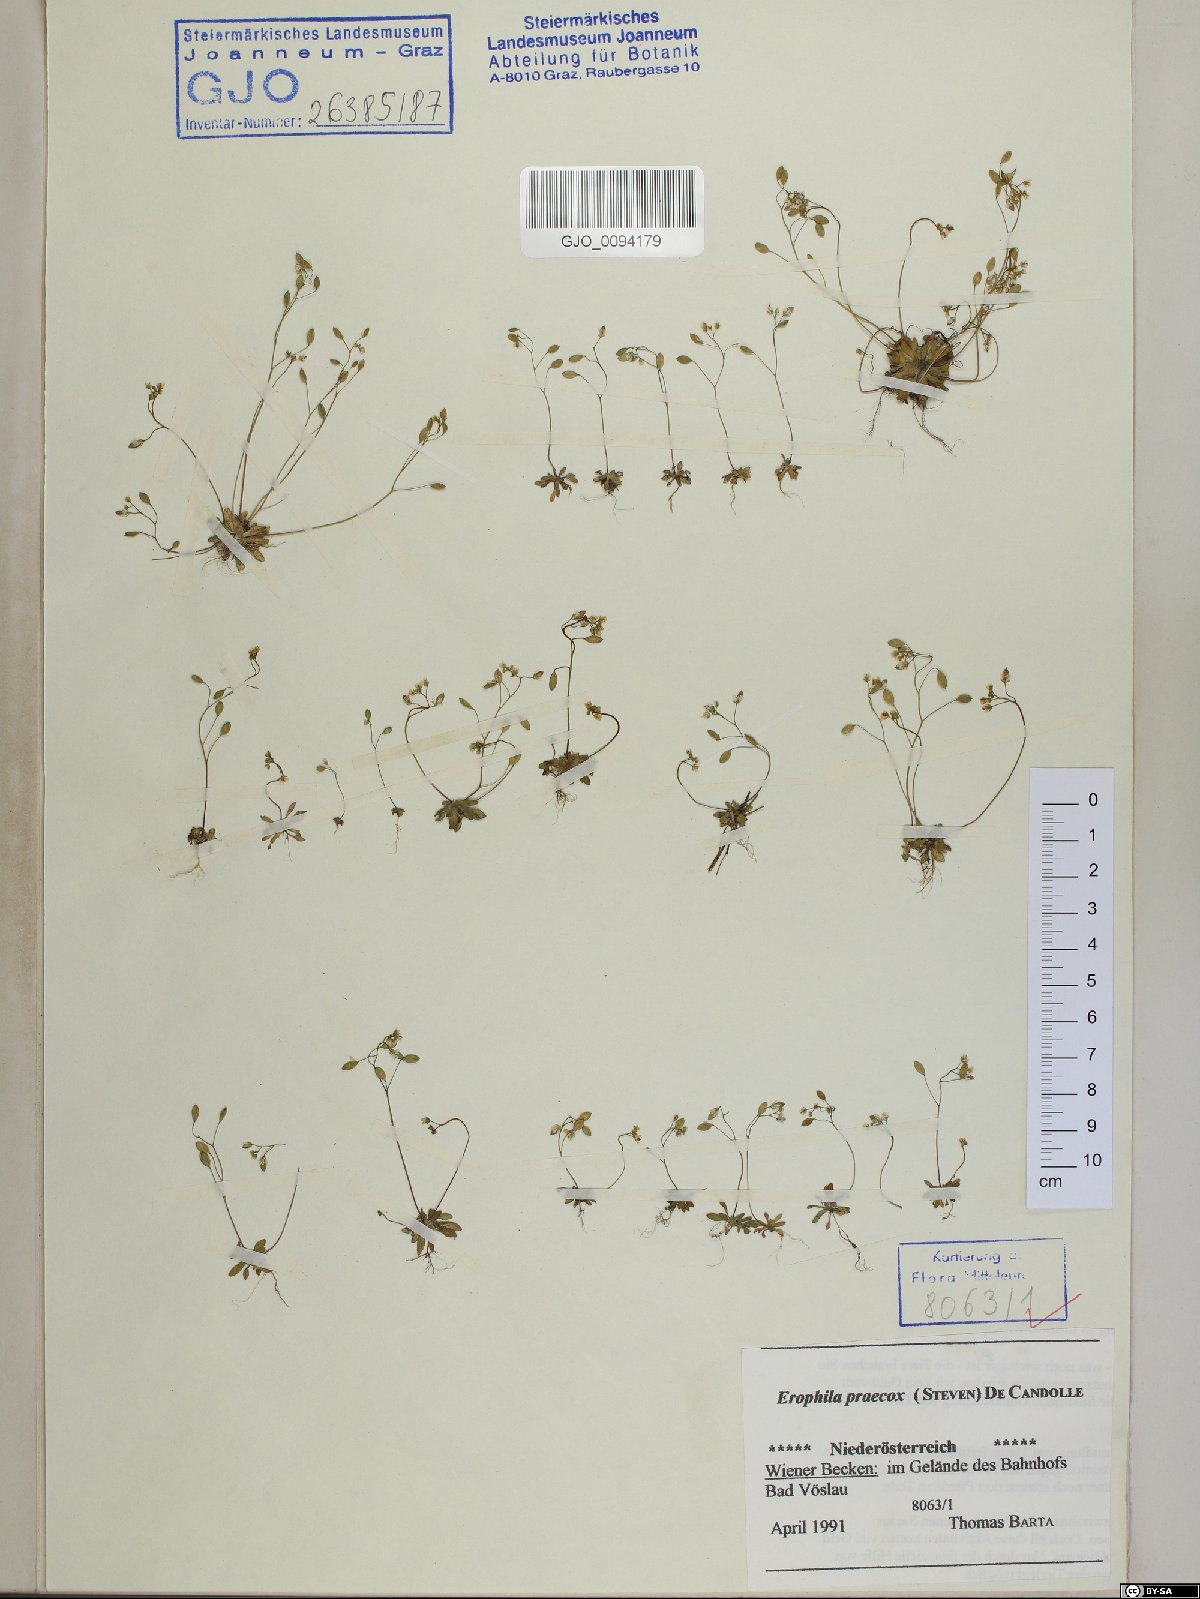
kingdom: Plantae
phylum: Tracheophyta
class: Magnoliopsida
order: Brassicales
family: Brassicaceae
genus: Draba
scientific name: Draba verna
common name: Spring draba
